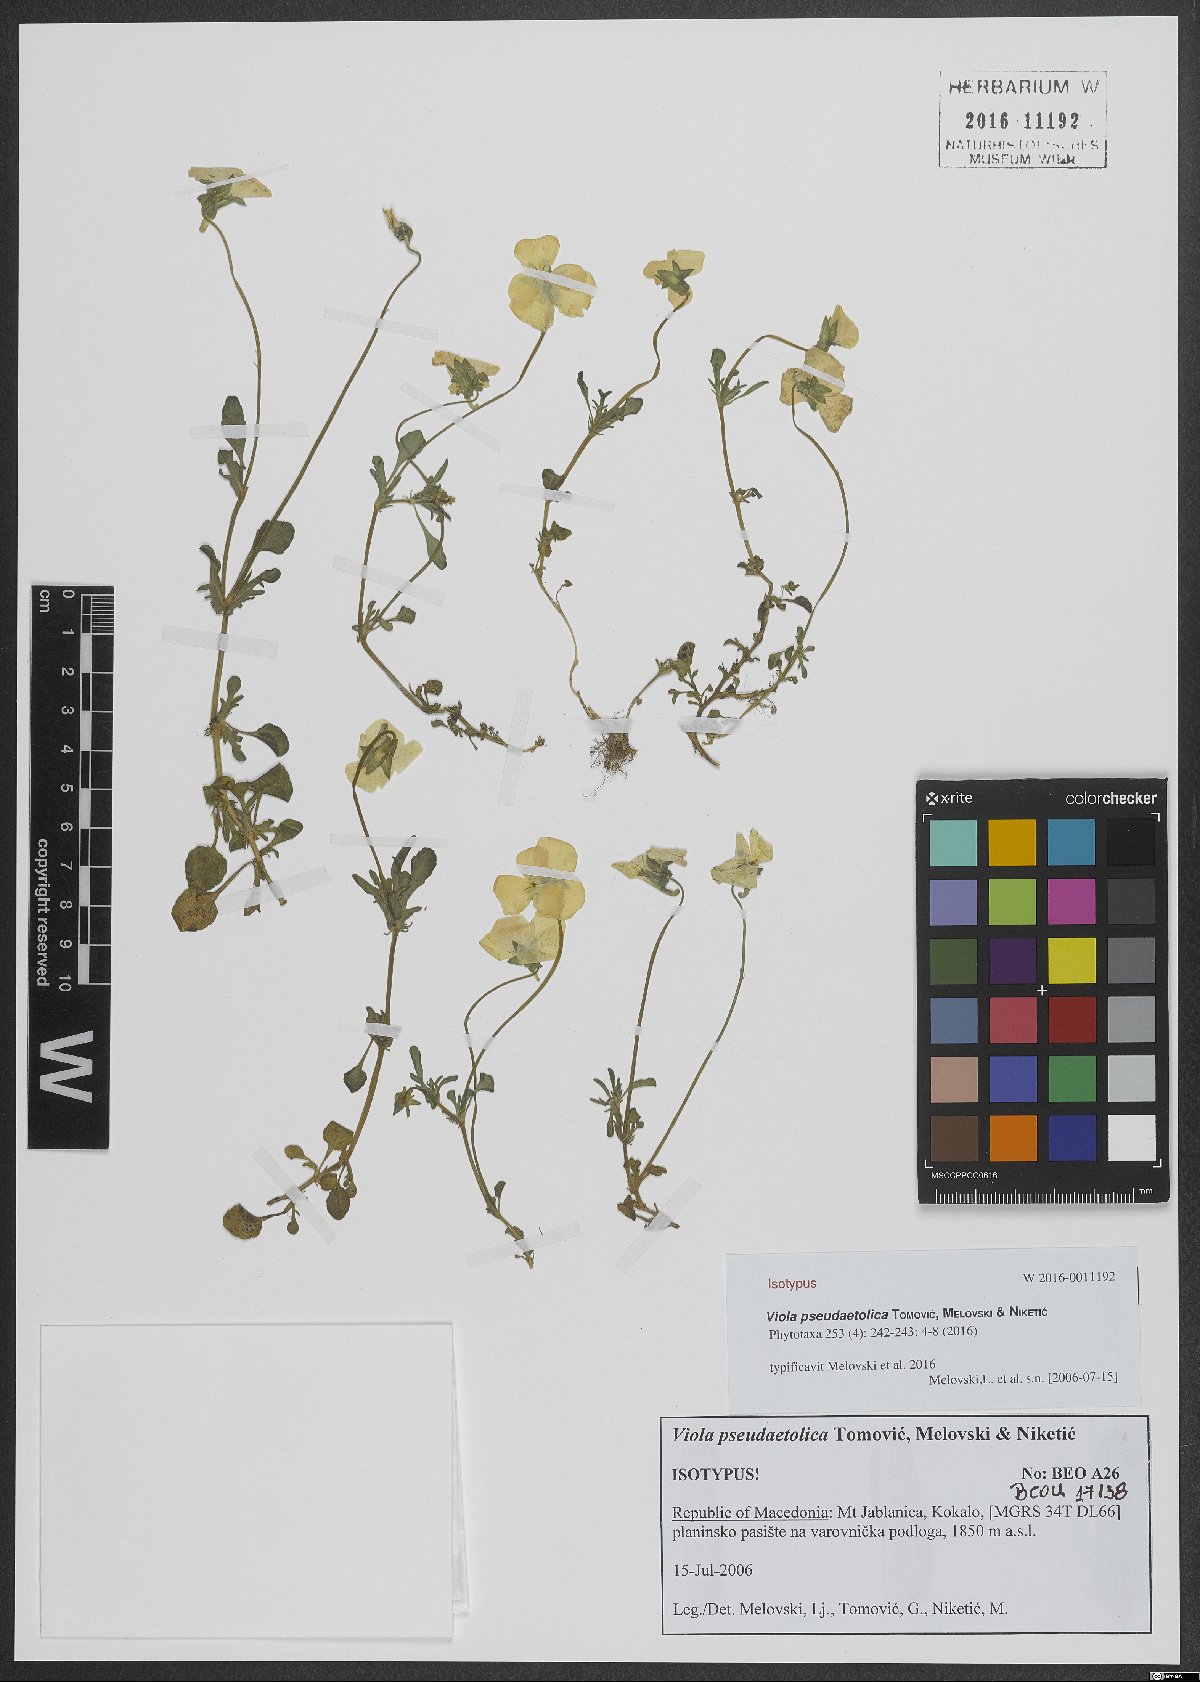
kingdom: Plantae
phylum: Tracheophyta
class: Magnoliopsida
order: Malpighiales
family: Violaceae
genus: Viola
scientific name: Viola pseudaetolica
